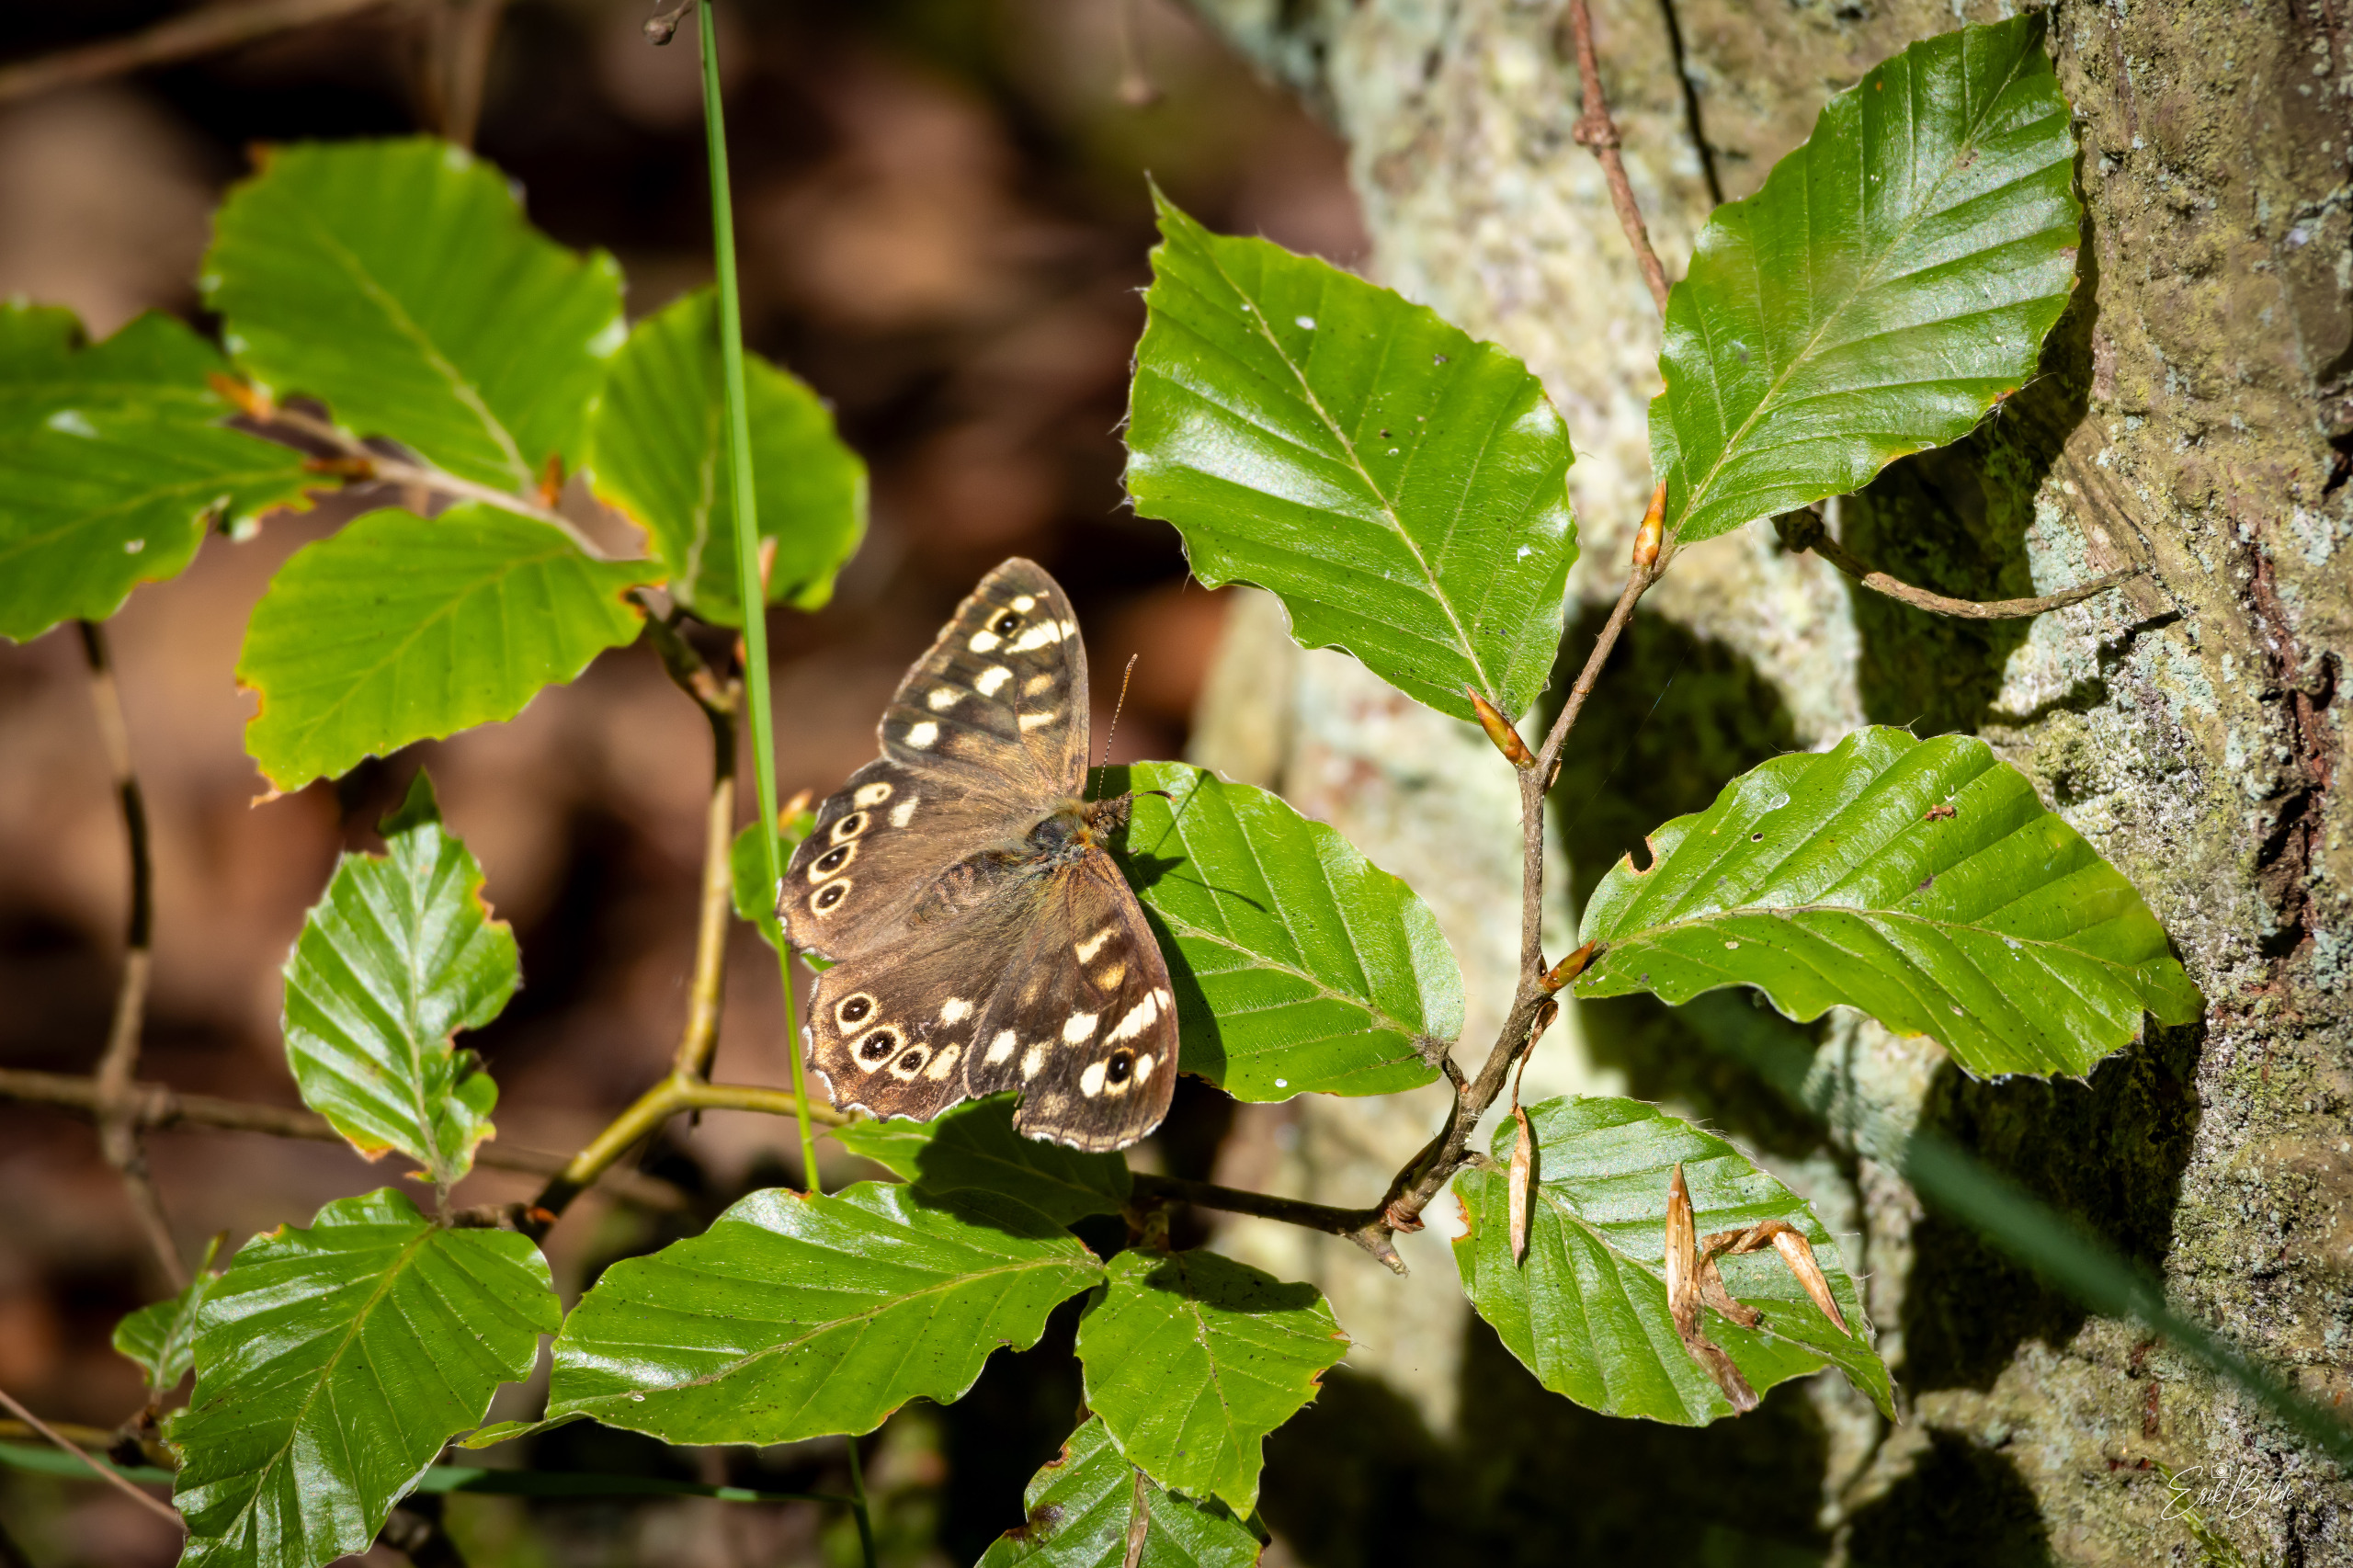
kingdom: Animalia
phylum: Arthropoda
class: Insecta
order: Lepidoptera
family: Nymphalidae
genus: Pararge
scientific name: Pararge aegeria
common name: Skovrandøje
